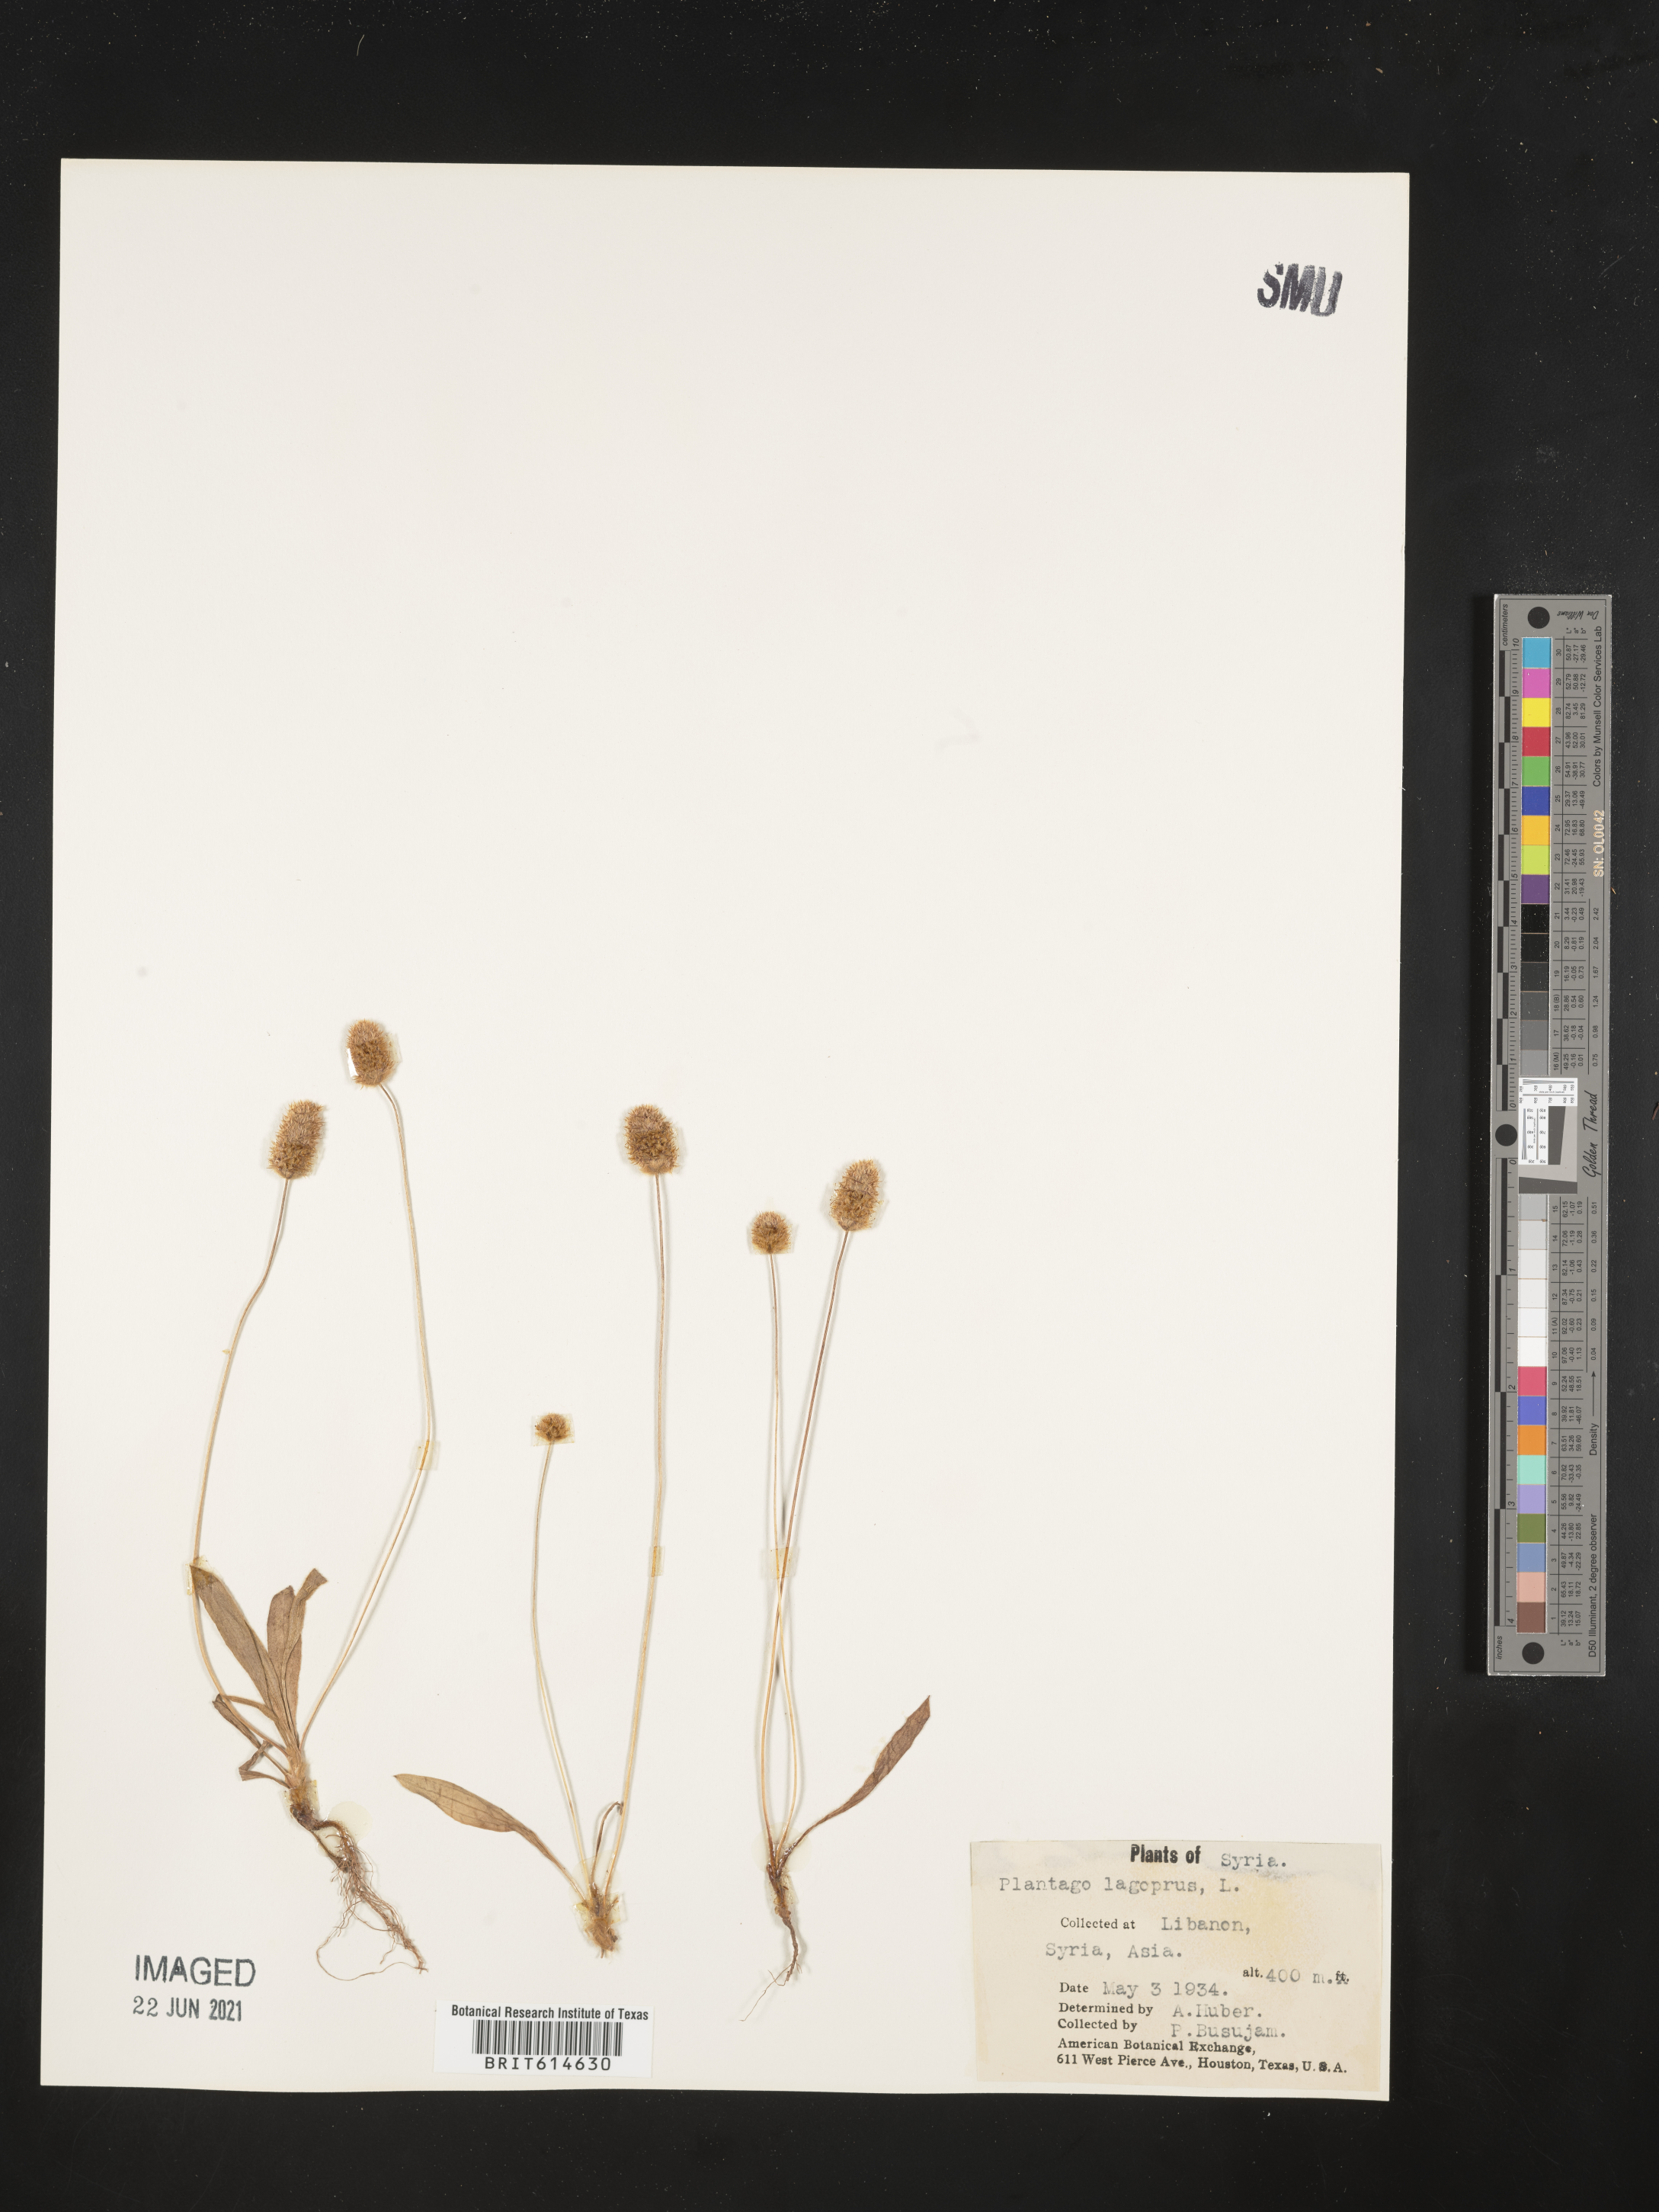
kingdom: Plantae
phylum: Tracheophyta
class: Magnoliopsida
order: Lamiales
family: Plantaginaceae
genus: Plantago
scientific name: Plantago aristata
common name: Bracted plantain
